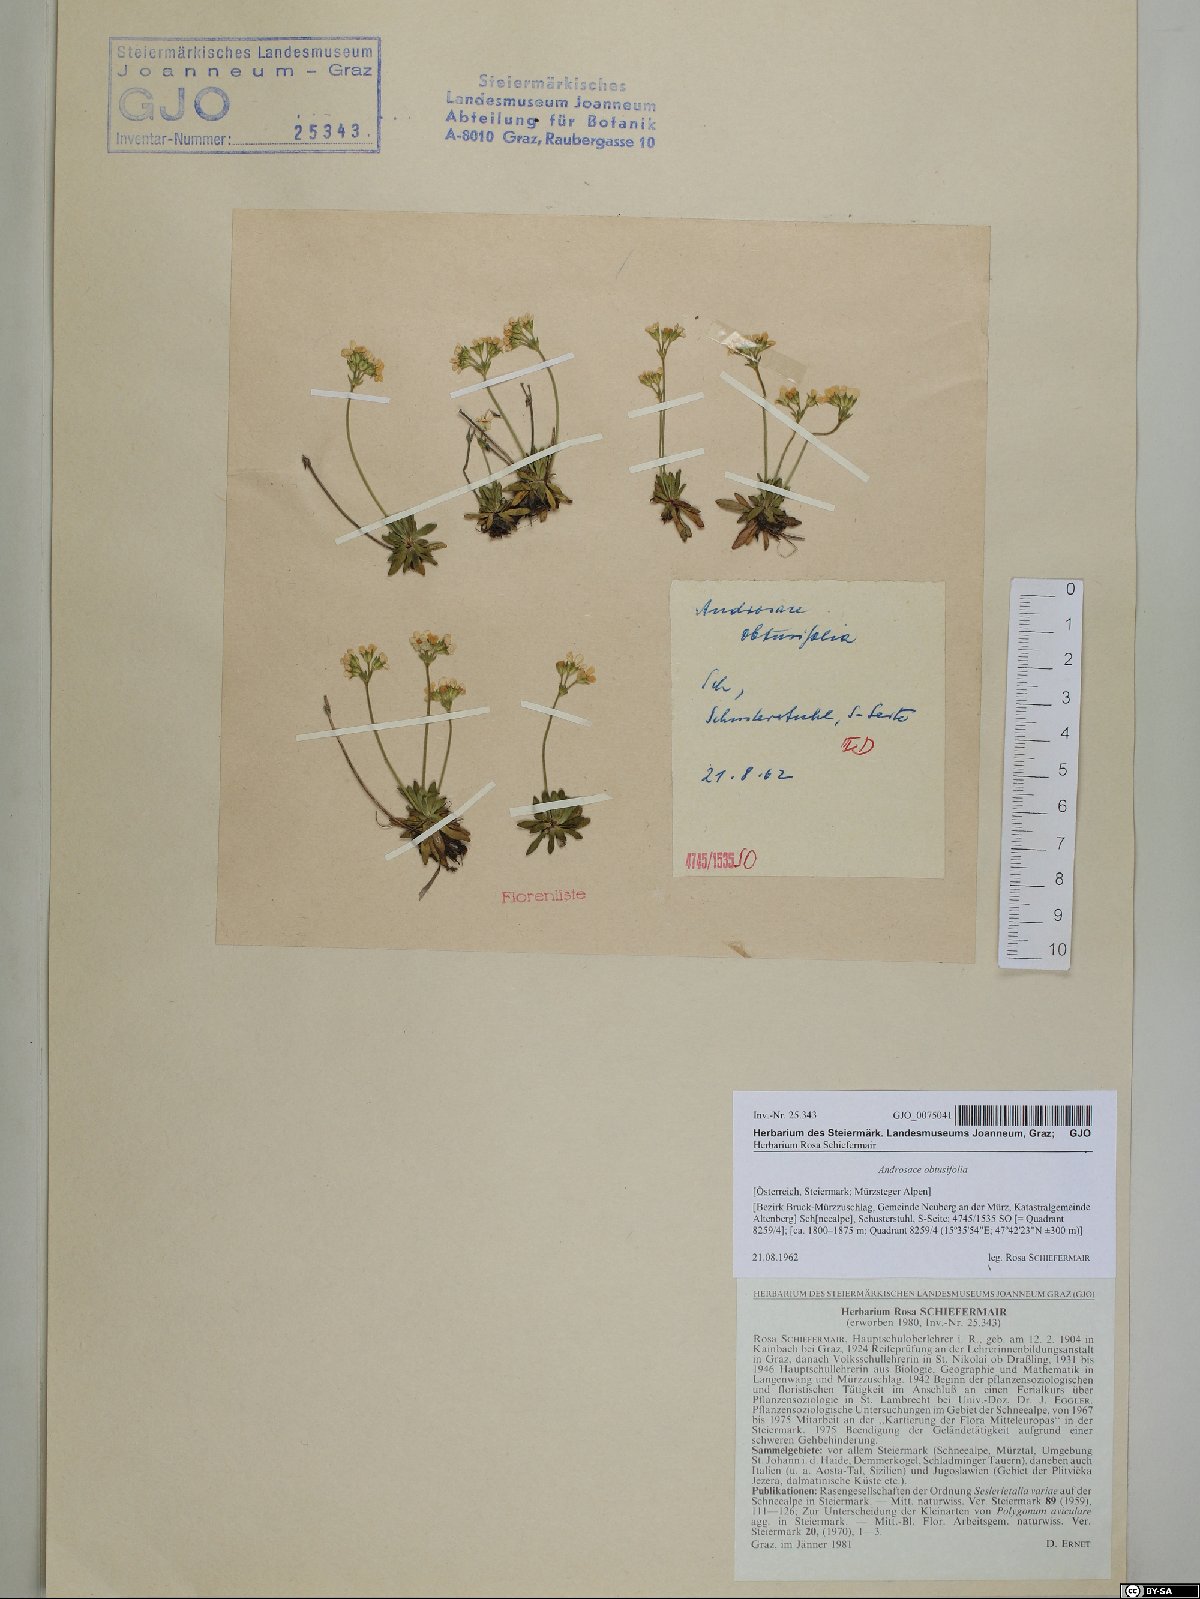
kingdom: Plantae
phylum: Tracheophyta
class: Magnoliopsida
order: Ericales
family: Primulaceae
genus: Androsace
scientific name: Androsace obtusifolia
